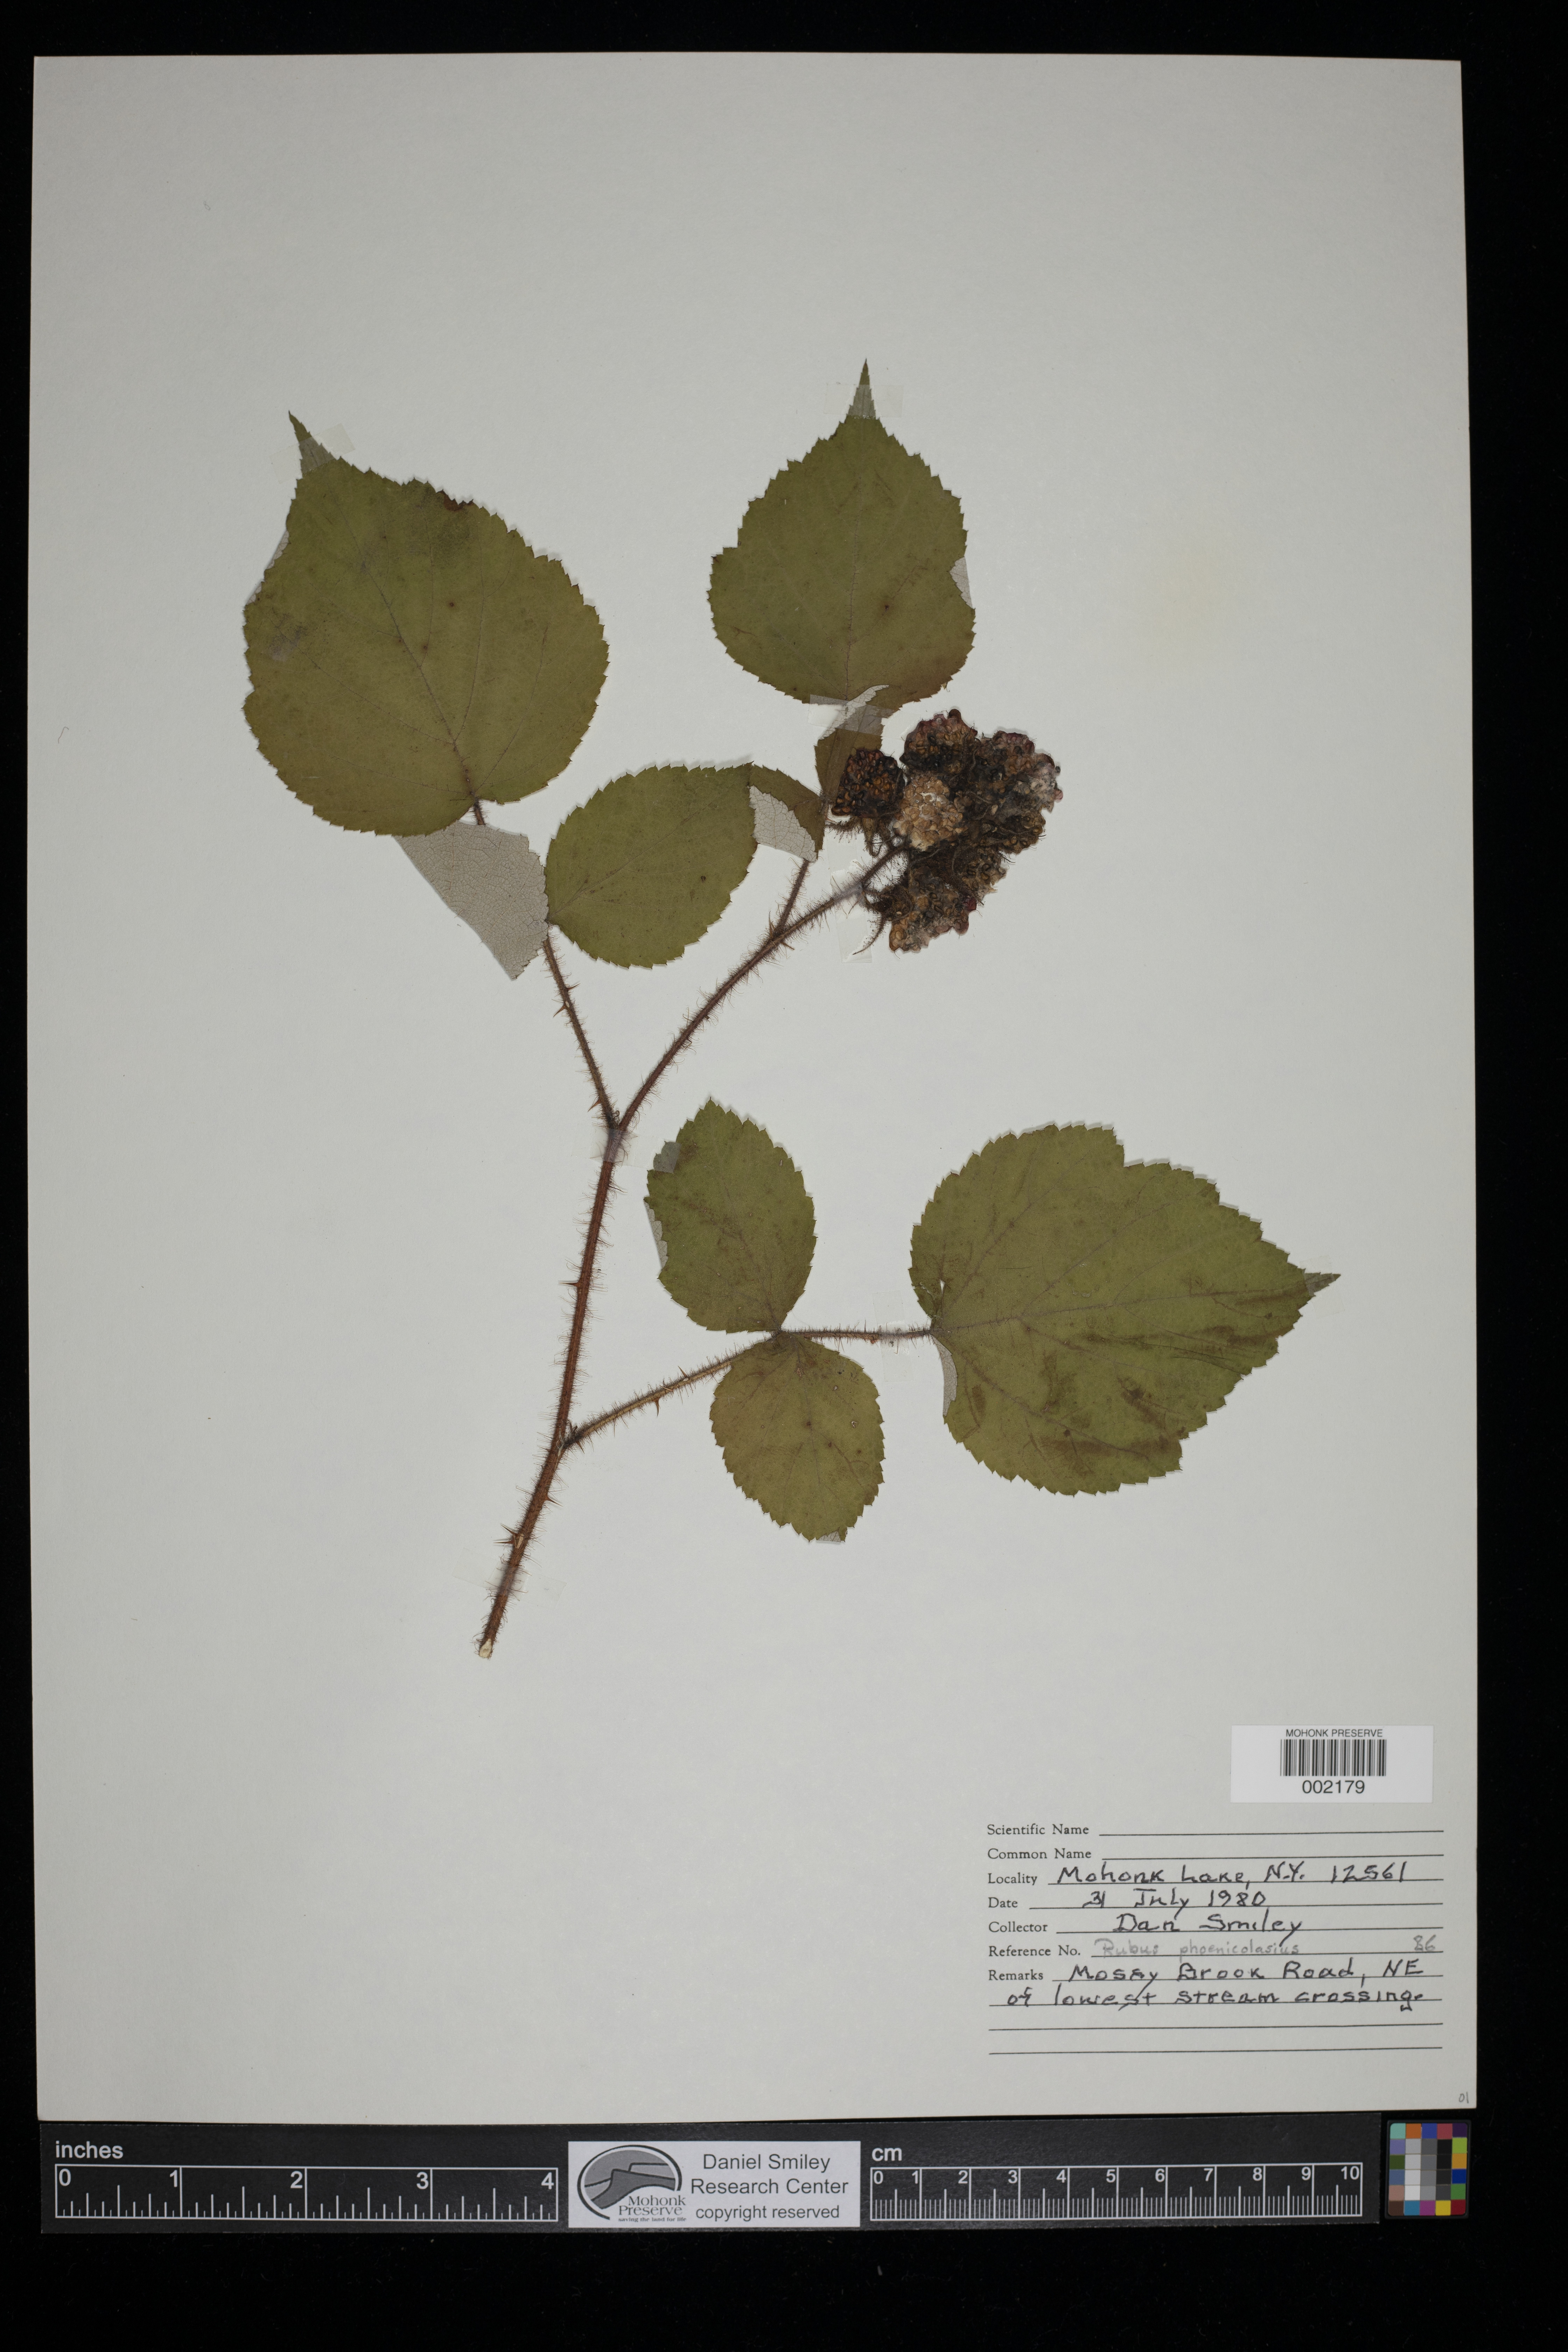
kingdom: Plantae
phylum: Tracheophyta
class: Magnoliopsida
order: Rosales
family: Rosaceae
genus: Rubus
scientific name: Rubus phoenicolasius
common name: Japanese wineberry
